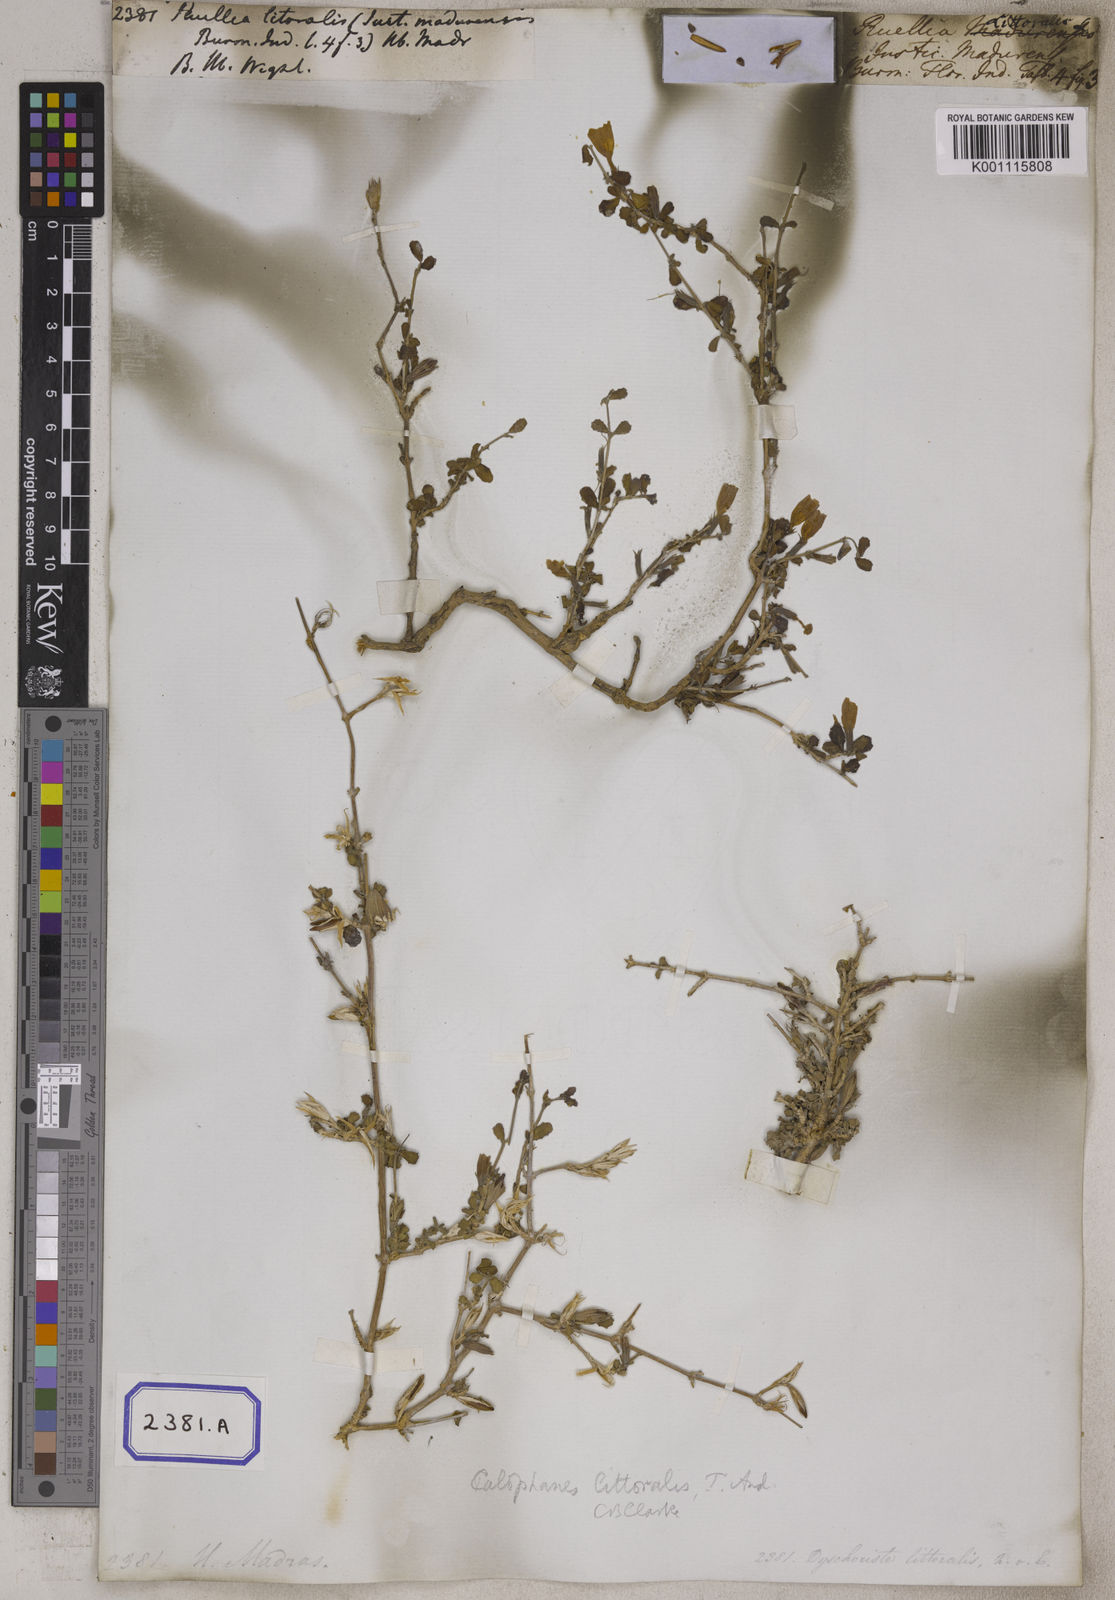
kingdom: Plantae
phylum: Tracheophyta
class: Magnoliopsida
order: Lamiales
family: Acanthaceae
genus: Dyschoriste
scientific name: Dyschoriste madurensis
